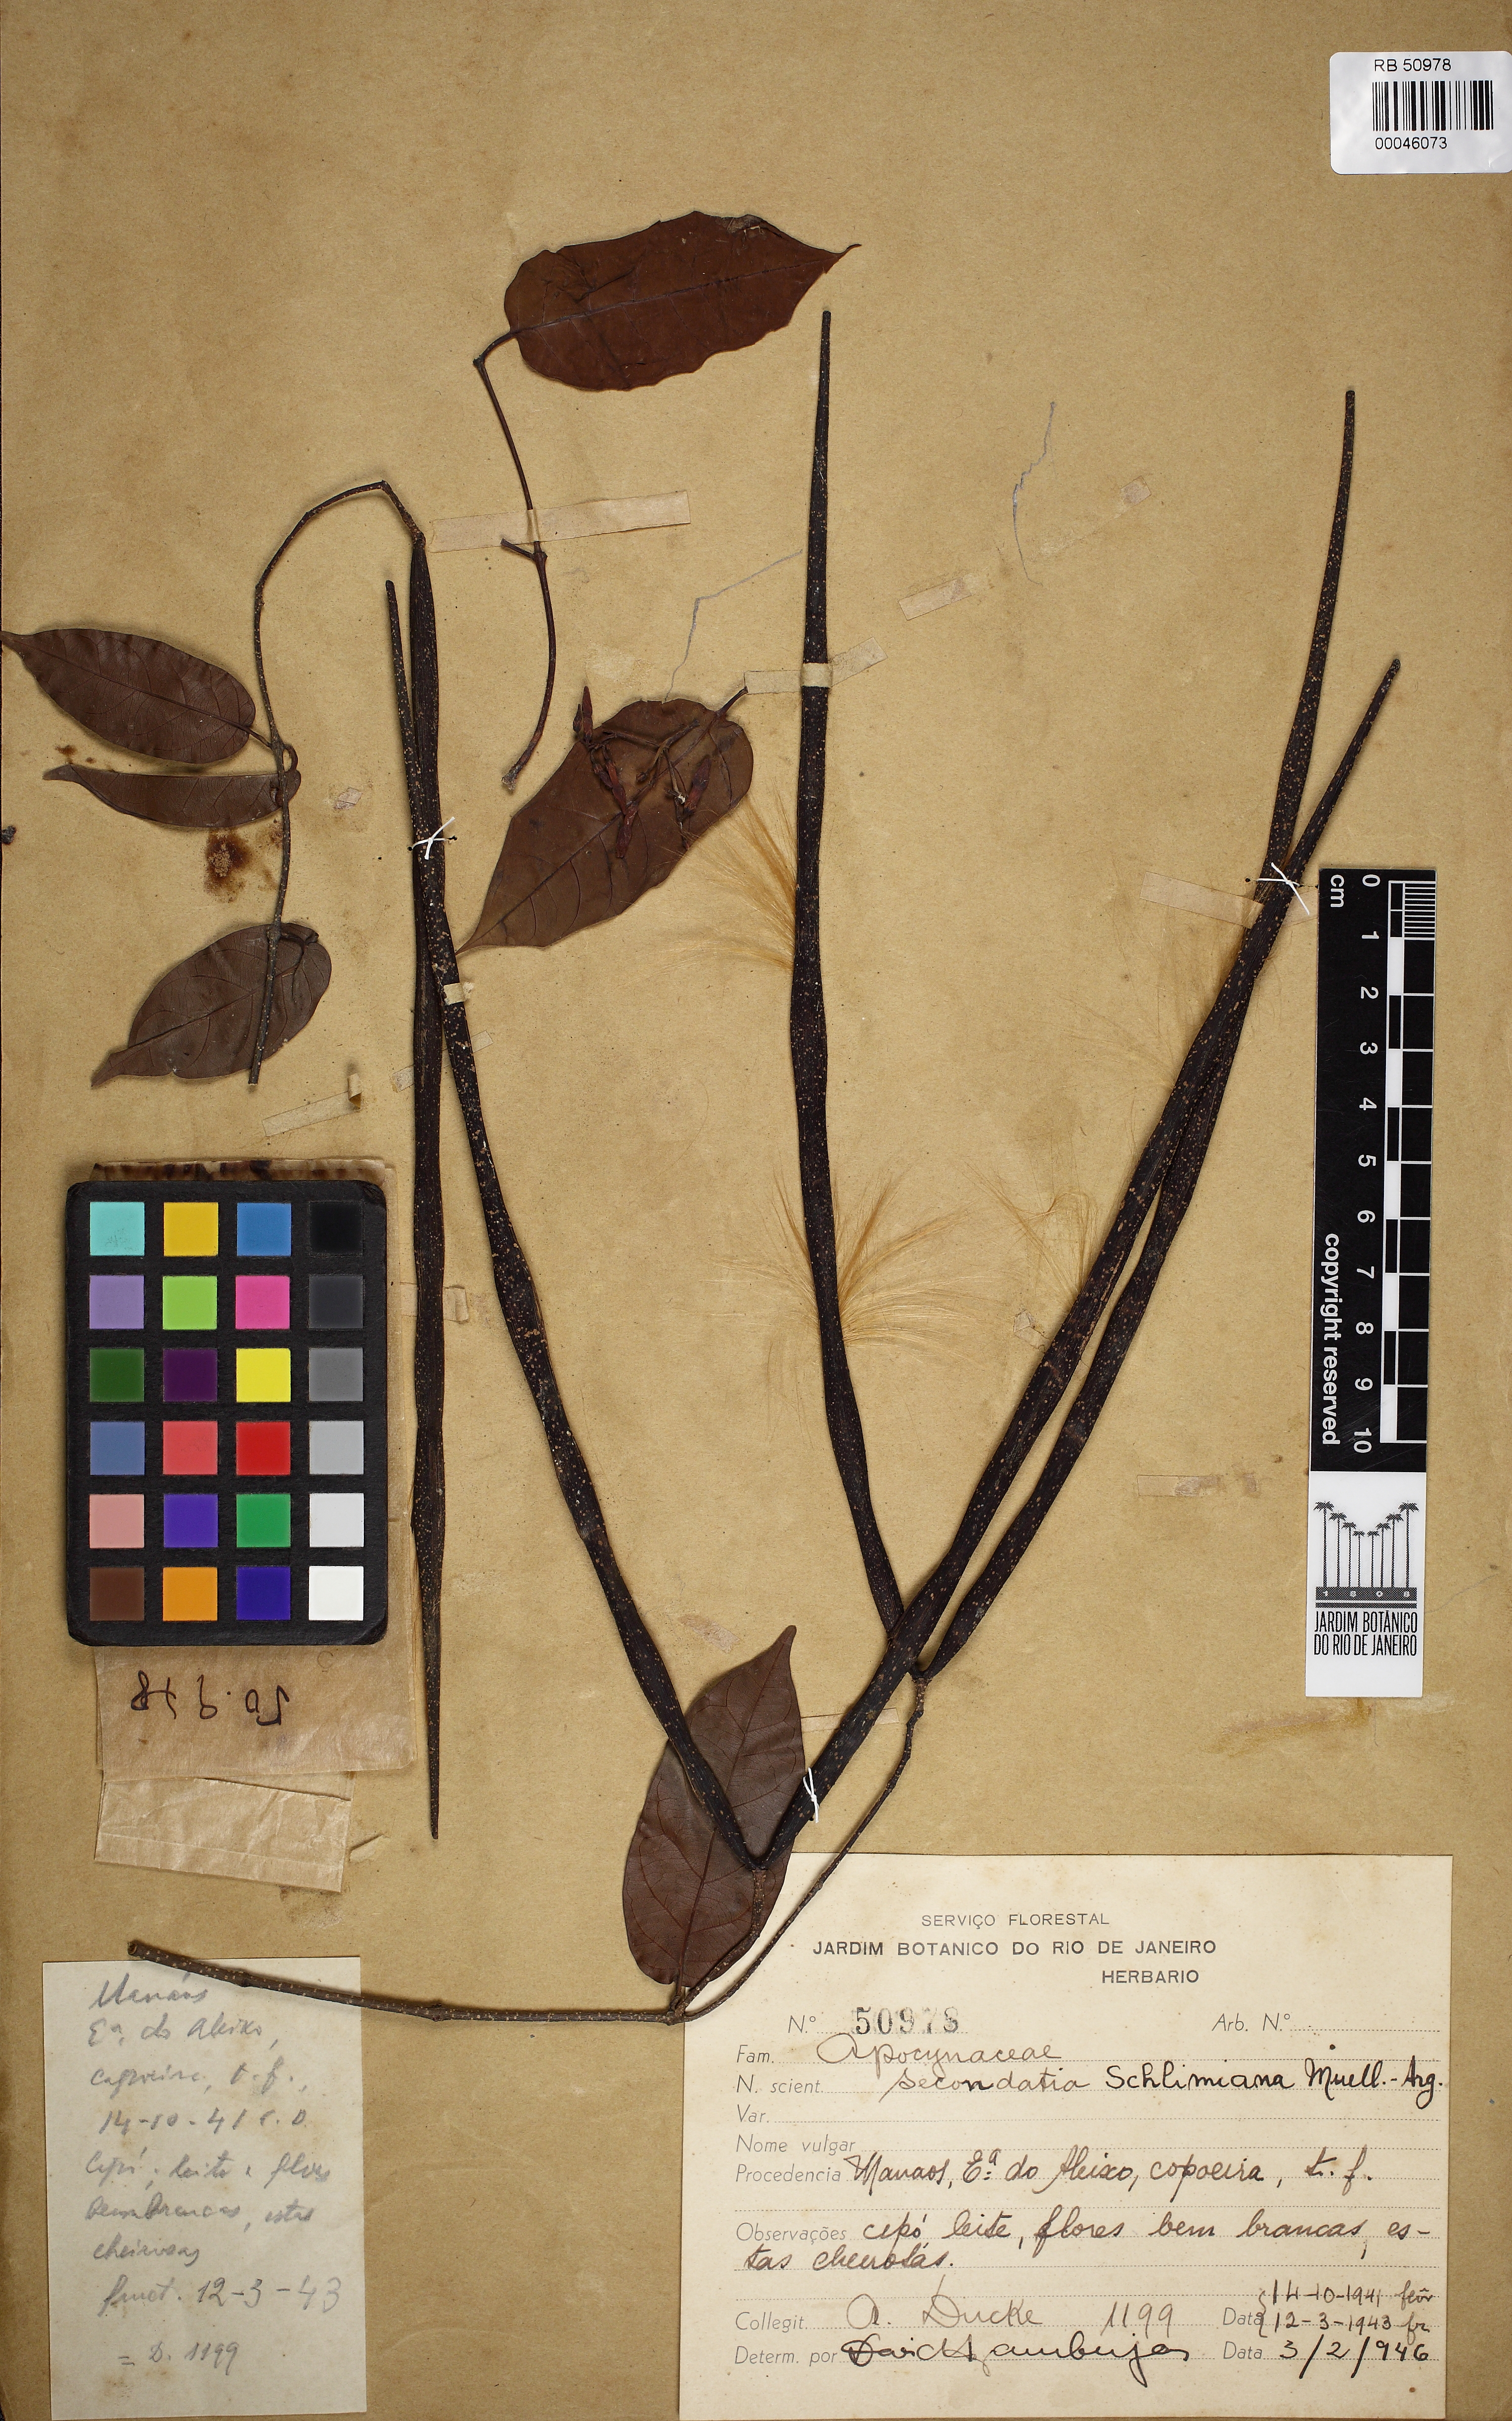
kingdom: Plantae
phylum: Tracheophyta
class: Magnoliopsida
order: Gentianales
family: Apocynaceae
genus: Secondatia
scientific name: Secondatia schlimiana
